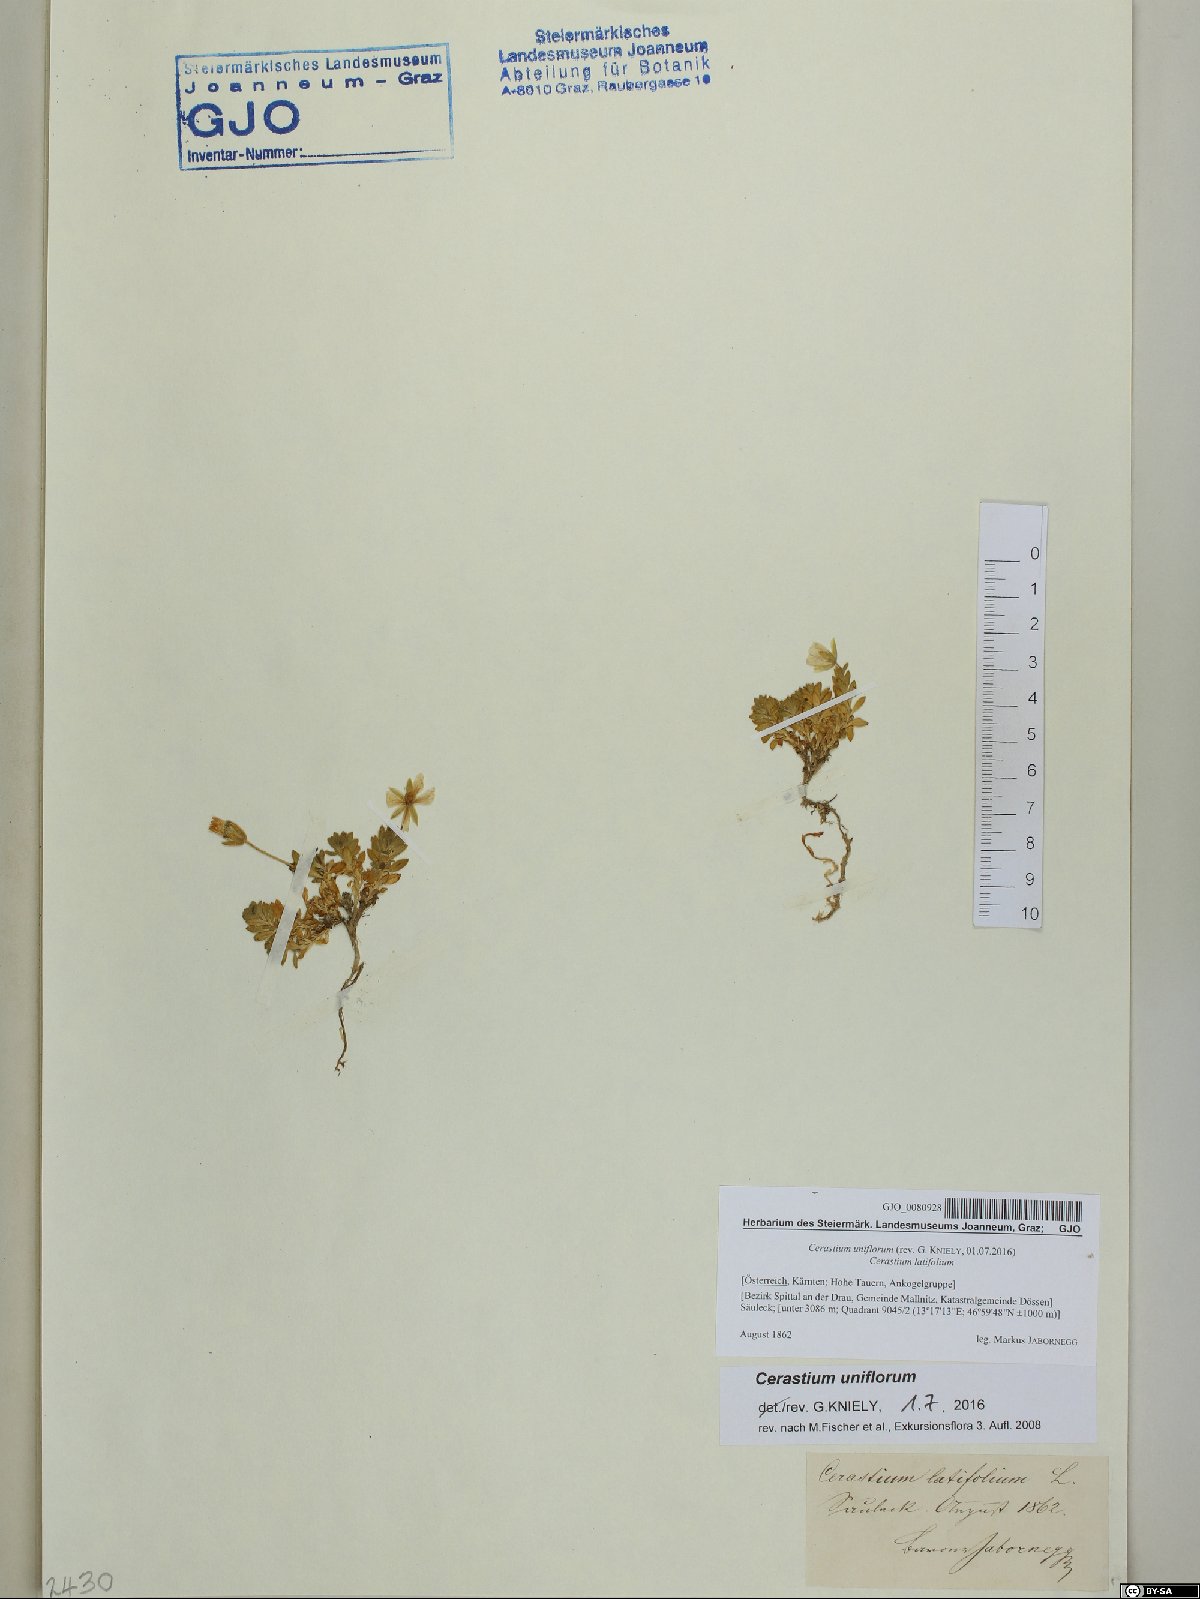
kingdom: Plantae
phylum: Tracheophyta
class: Magnoliopsida
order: Caryophyllales
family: Caryophyllaceae
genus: Cerastium
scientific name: Cerastium uniflorum
